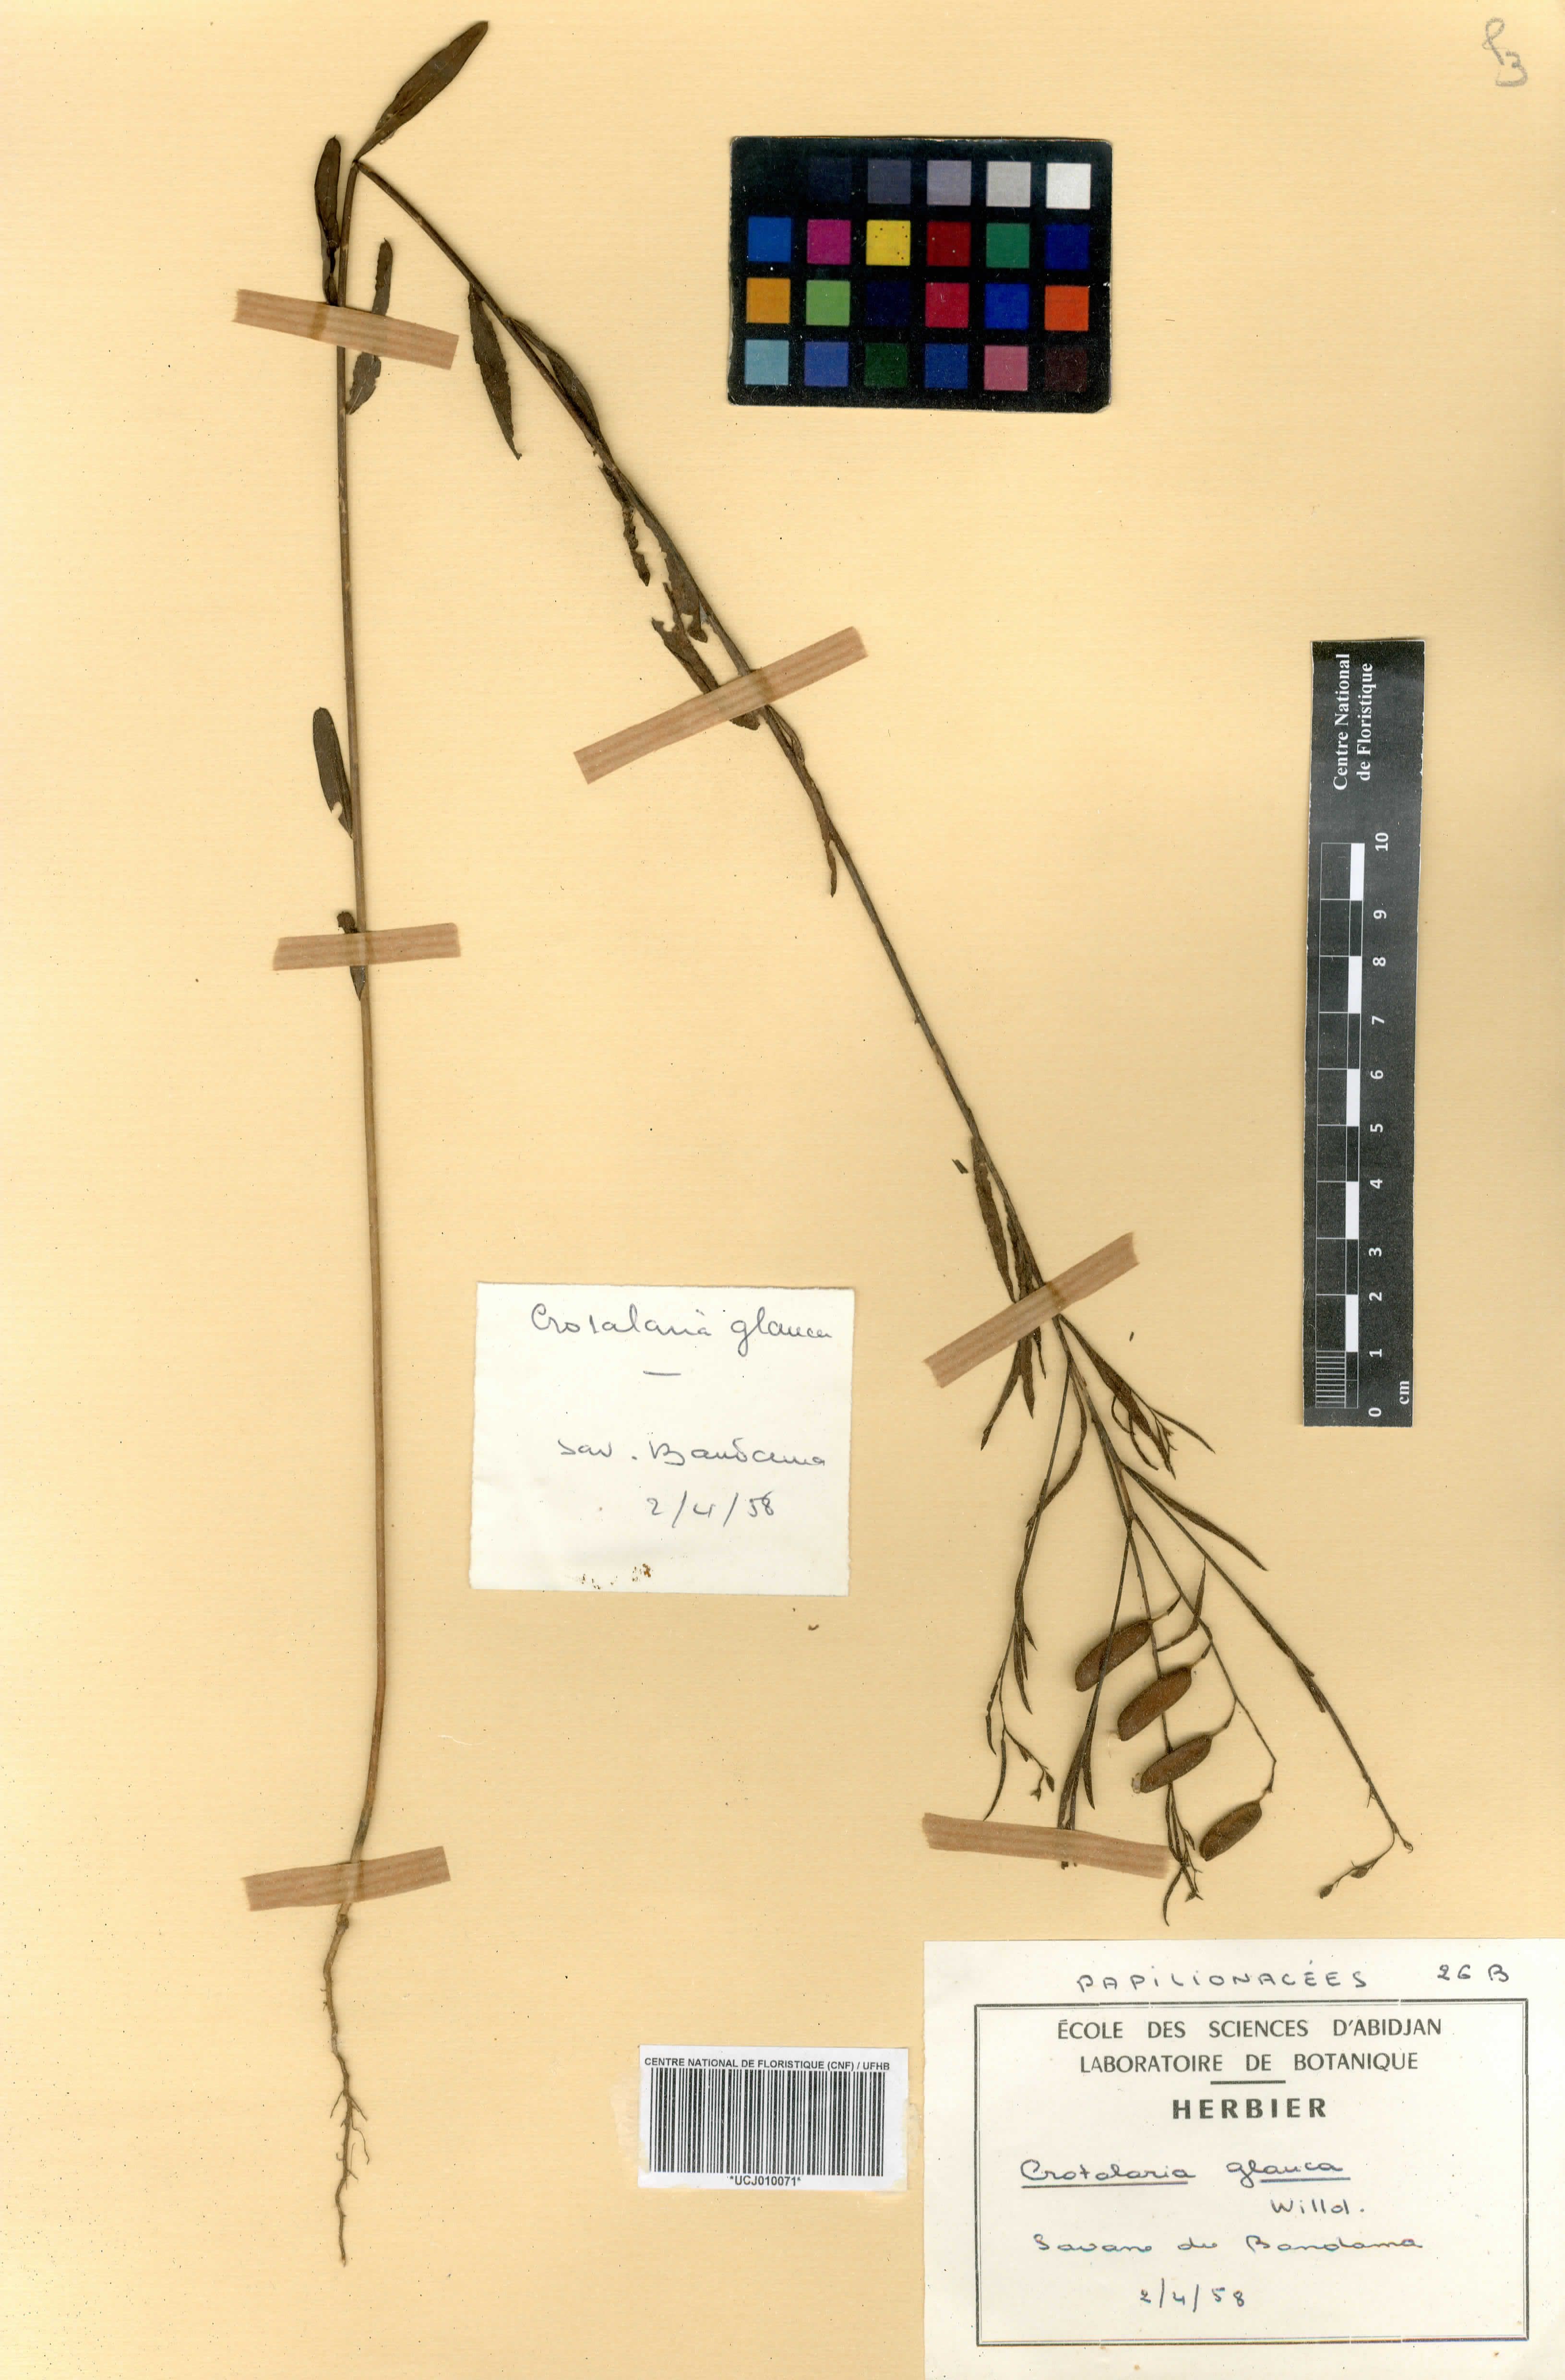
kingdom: Plantae
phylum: Tracheophyta
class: Magnoliopsida
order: Fabales
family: Fabaceae
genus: Crotalaria
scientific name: Crotalaria glauca
